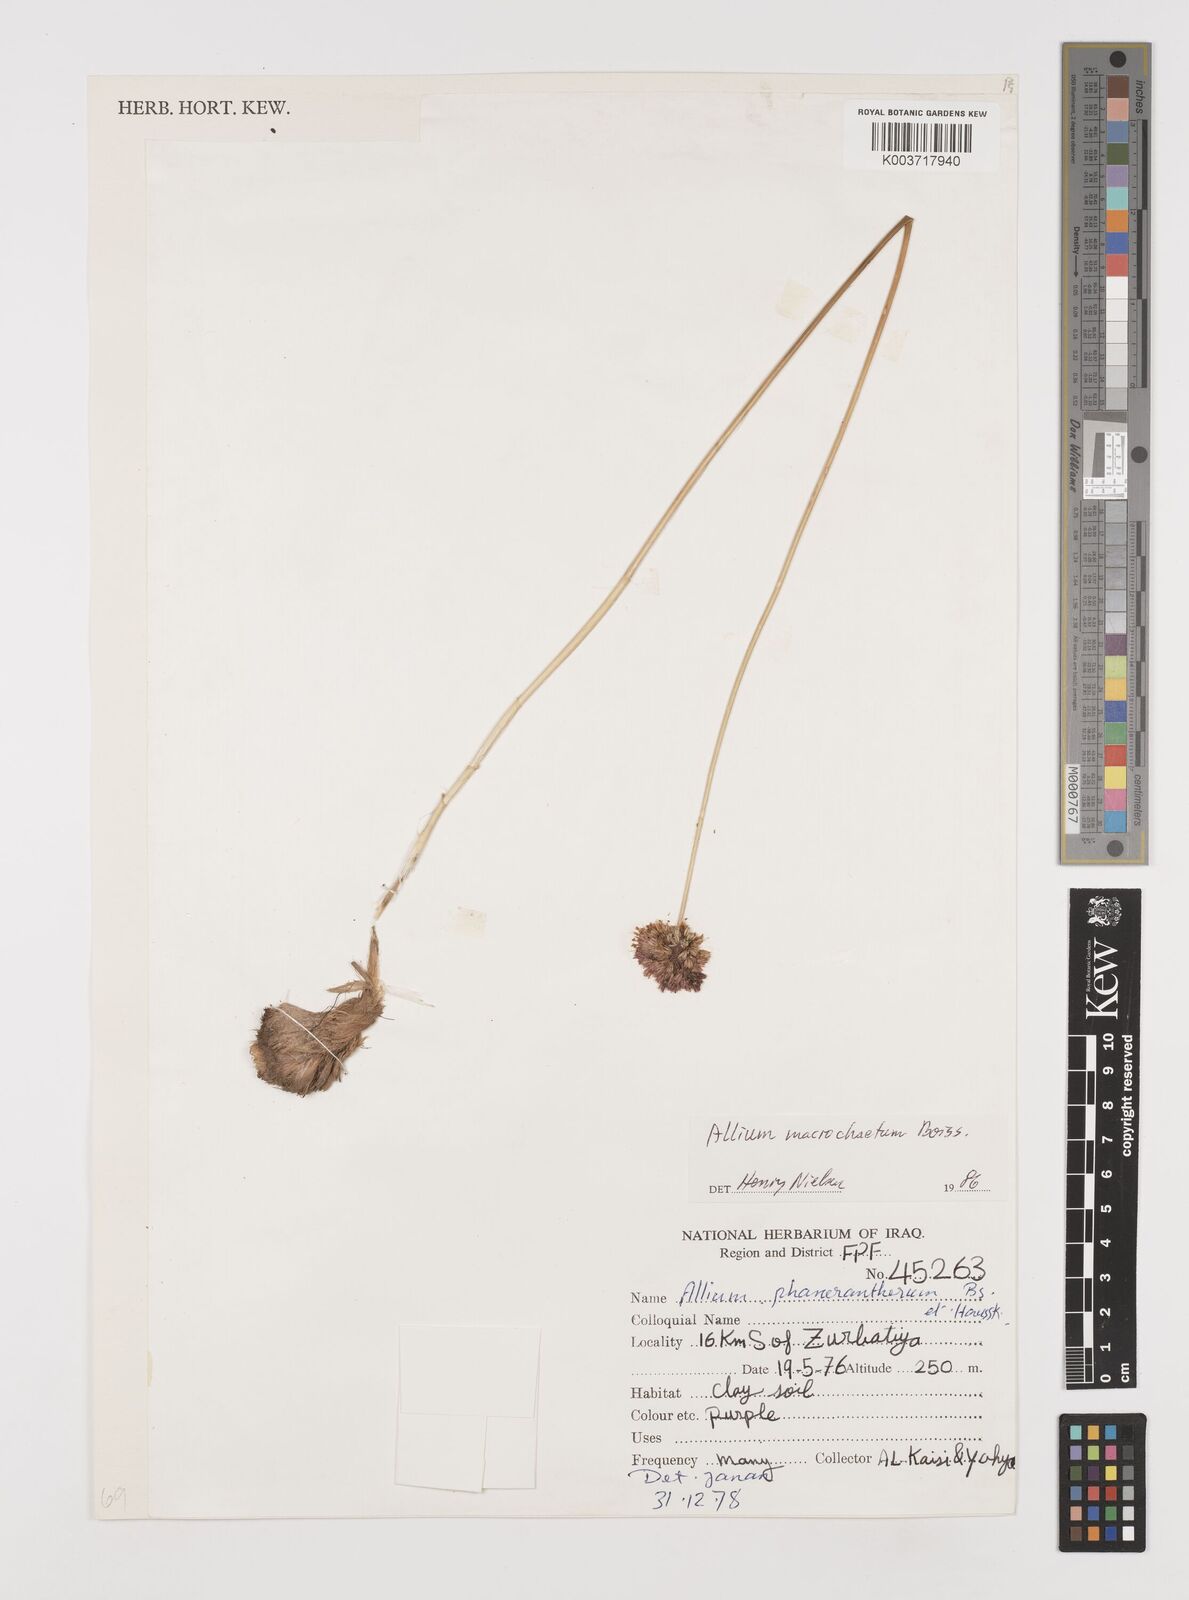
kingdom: Plantae
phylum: Tracheophyta
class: Liliopsida
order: Asparagales
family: Amaryllidaceae
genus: Allium
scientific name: Allium macrochaetum
